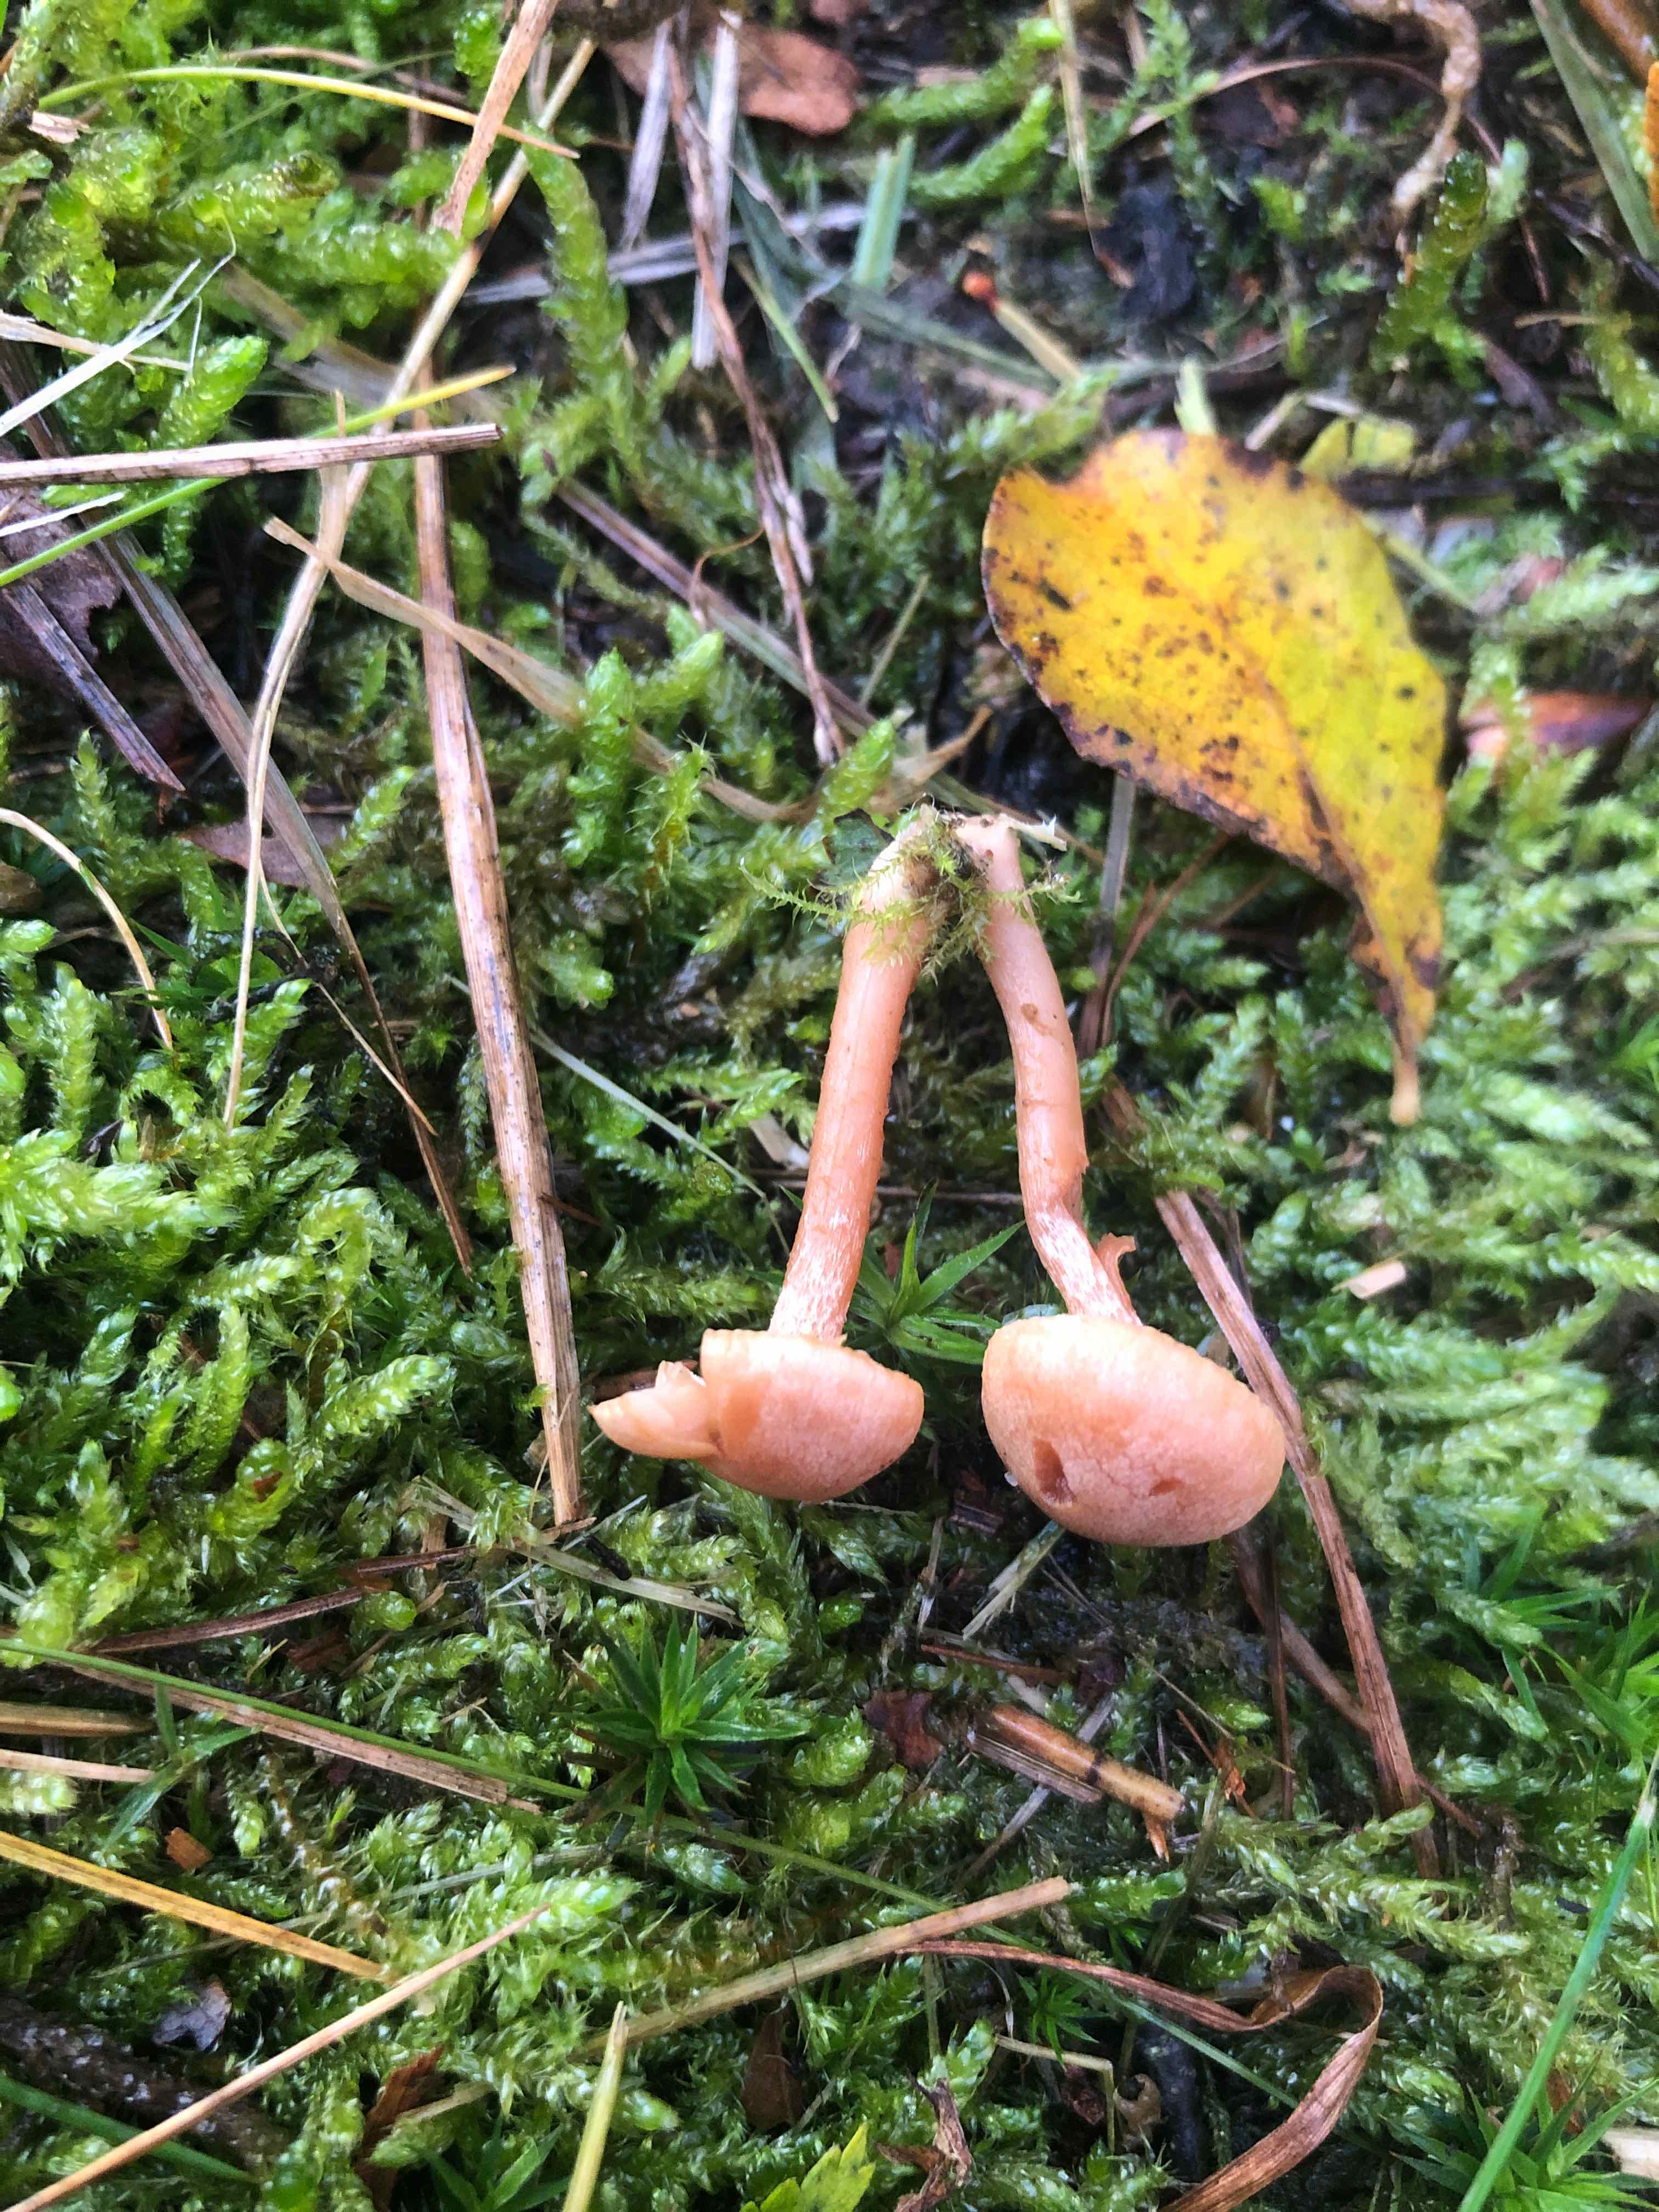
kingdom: Fungi
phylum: Basidiomycota
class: Agaricomycetes
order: Russulales
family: Russulaceae
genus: Lactarius
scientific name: Lactarius aurantiacus
